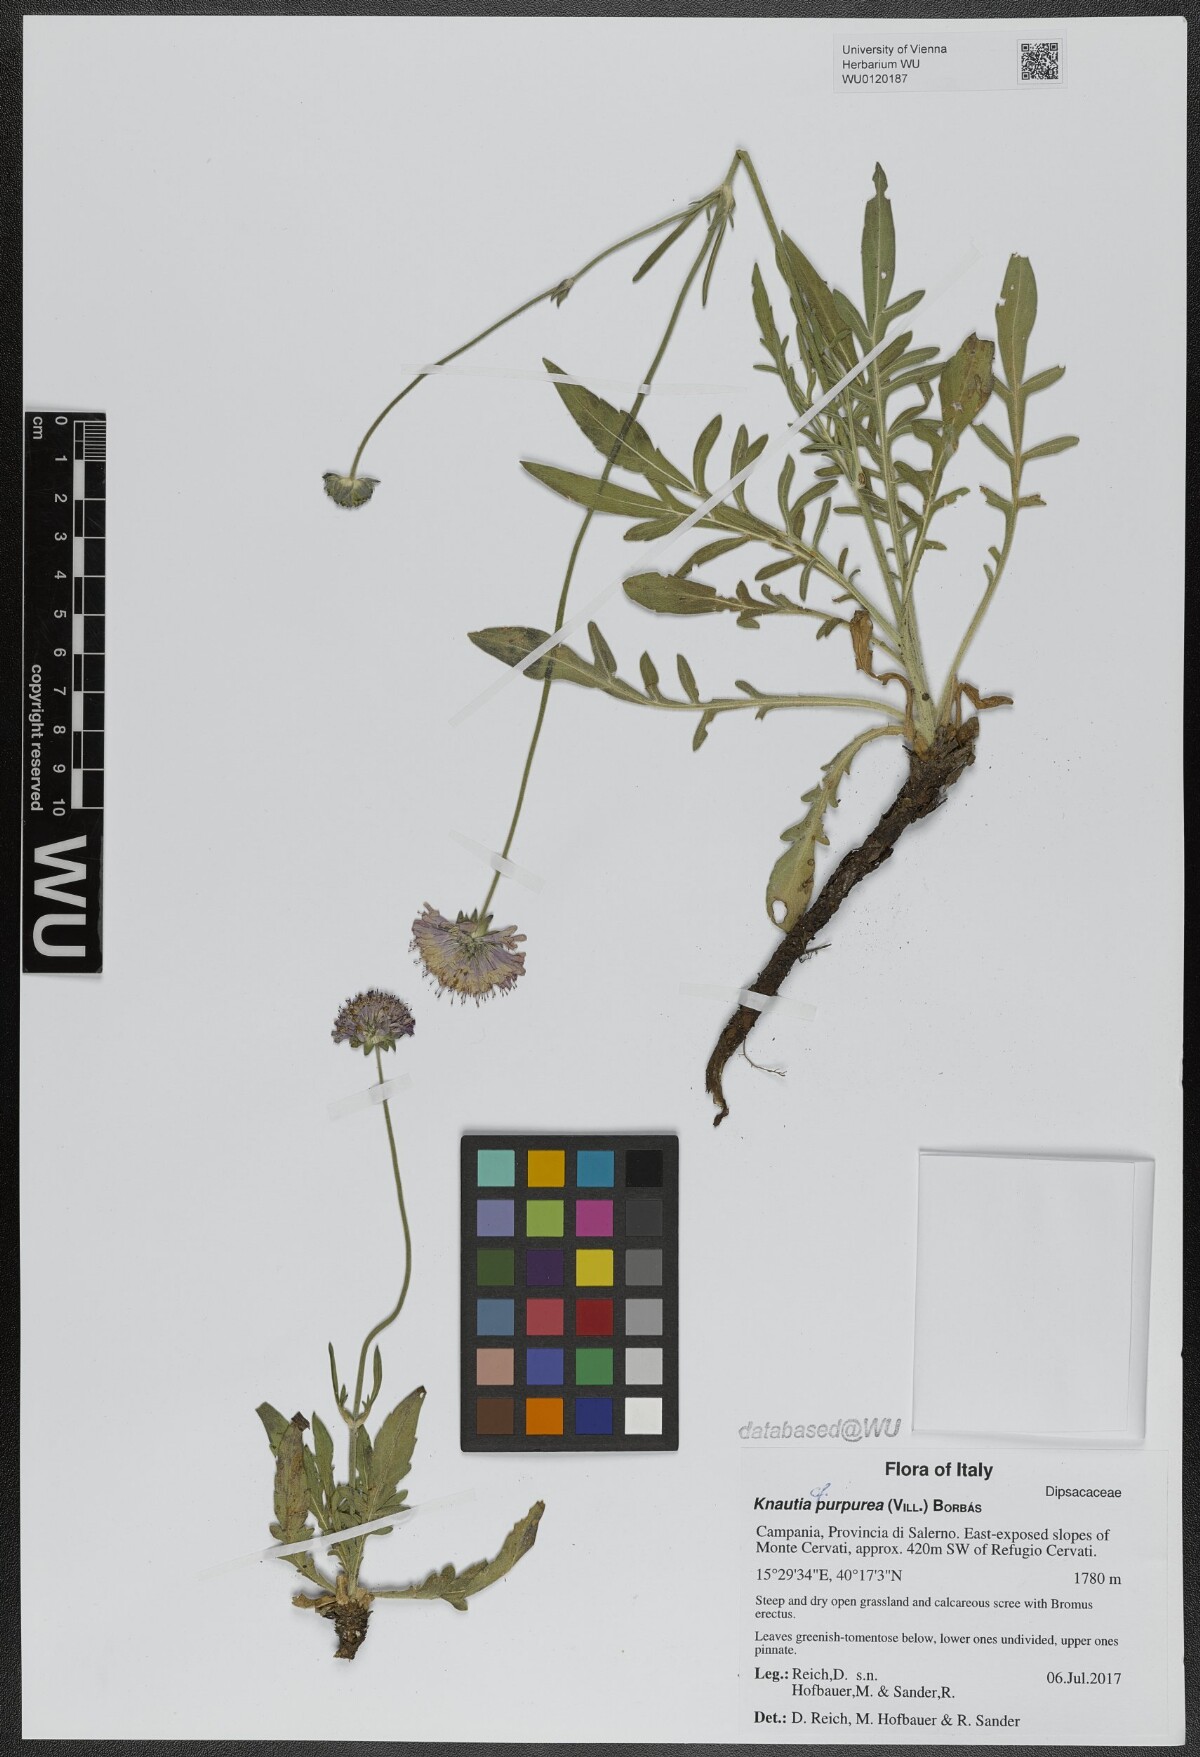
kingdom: Plantae
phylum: Tracheophyta
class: Magnoliopsida
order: Dipsacales
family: Caprifoliaceae
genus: Knautia
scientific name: Knautia collina
